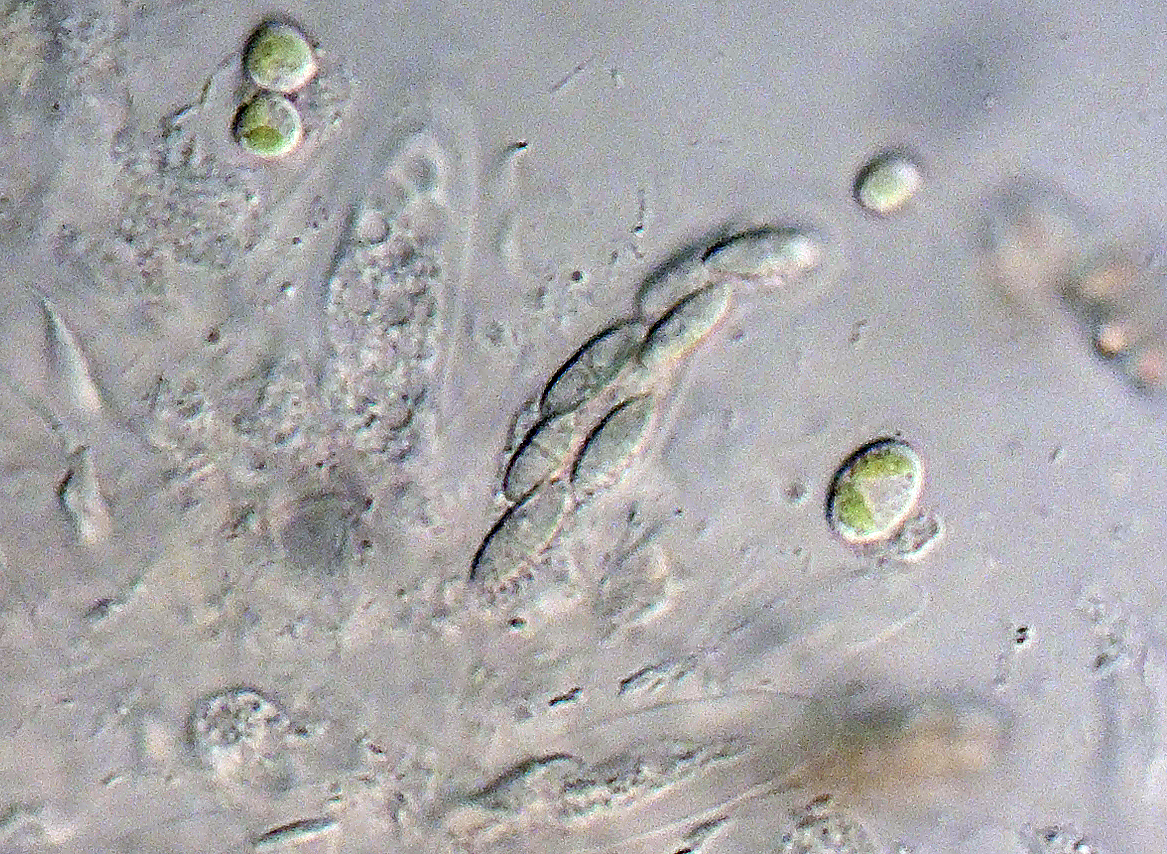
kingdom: Fungi
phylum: Ascomycota
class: Eurotiomycetes
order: Chaetothyriales
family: Herpotrichiellaceae
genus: Capronia
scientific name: Capronia inconspicua
